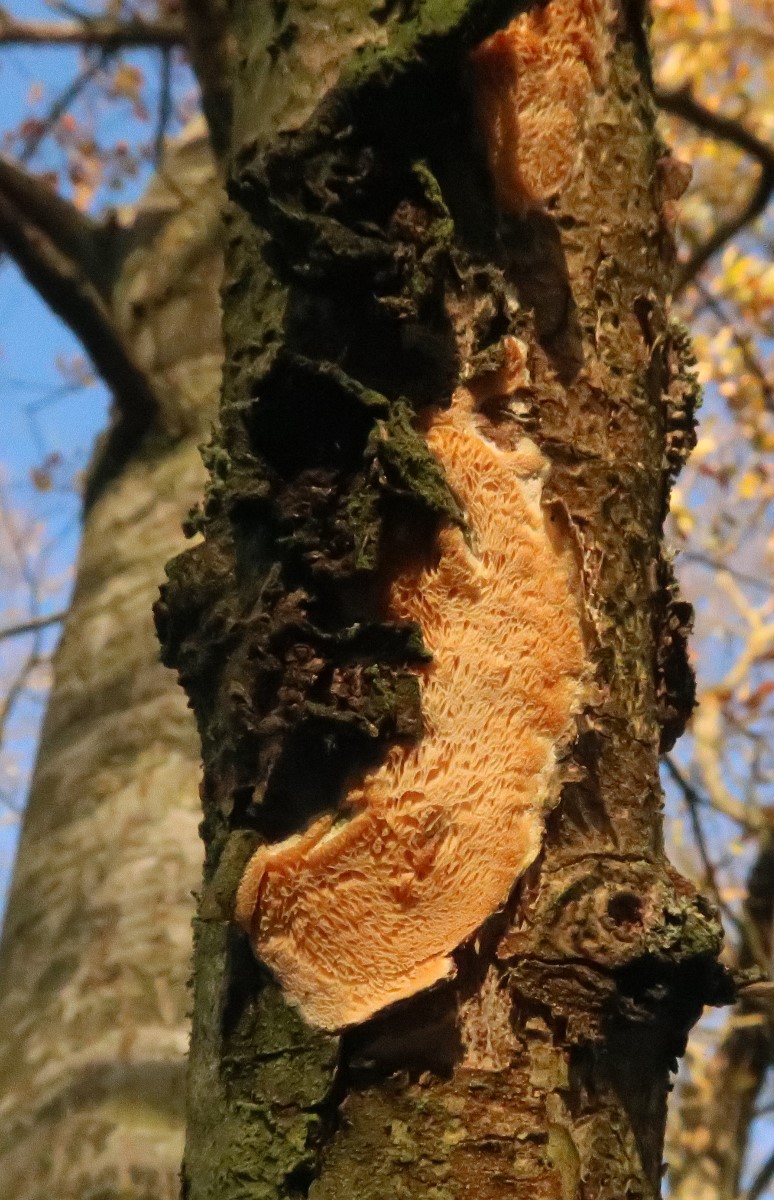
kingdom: Fungi
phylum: Basidiomycota
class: Agaricomycetes
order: Polyporales
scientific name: Polyporales
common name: poresvampordenen
